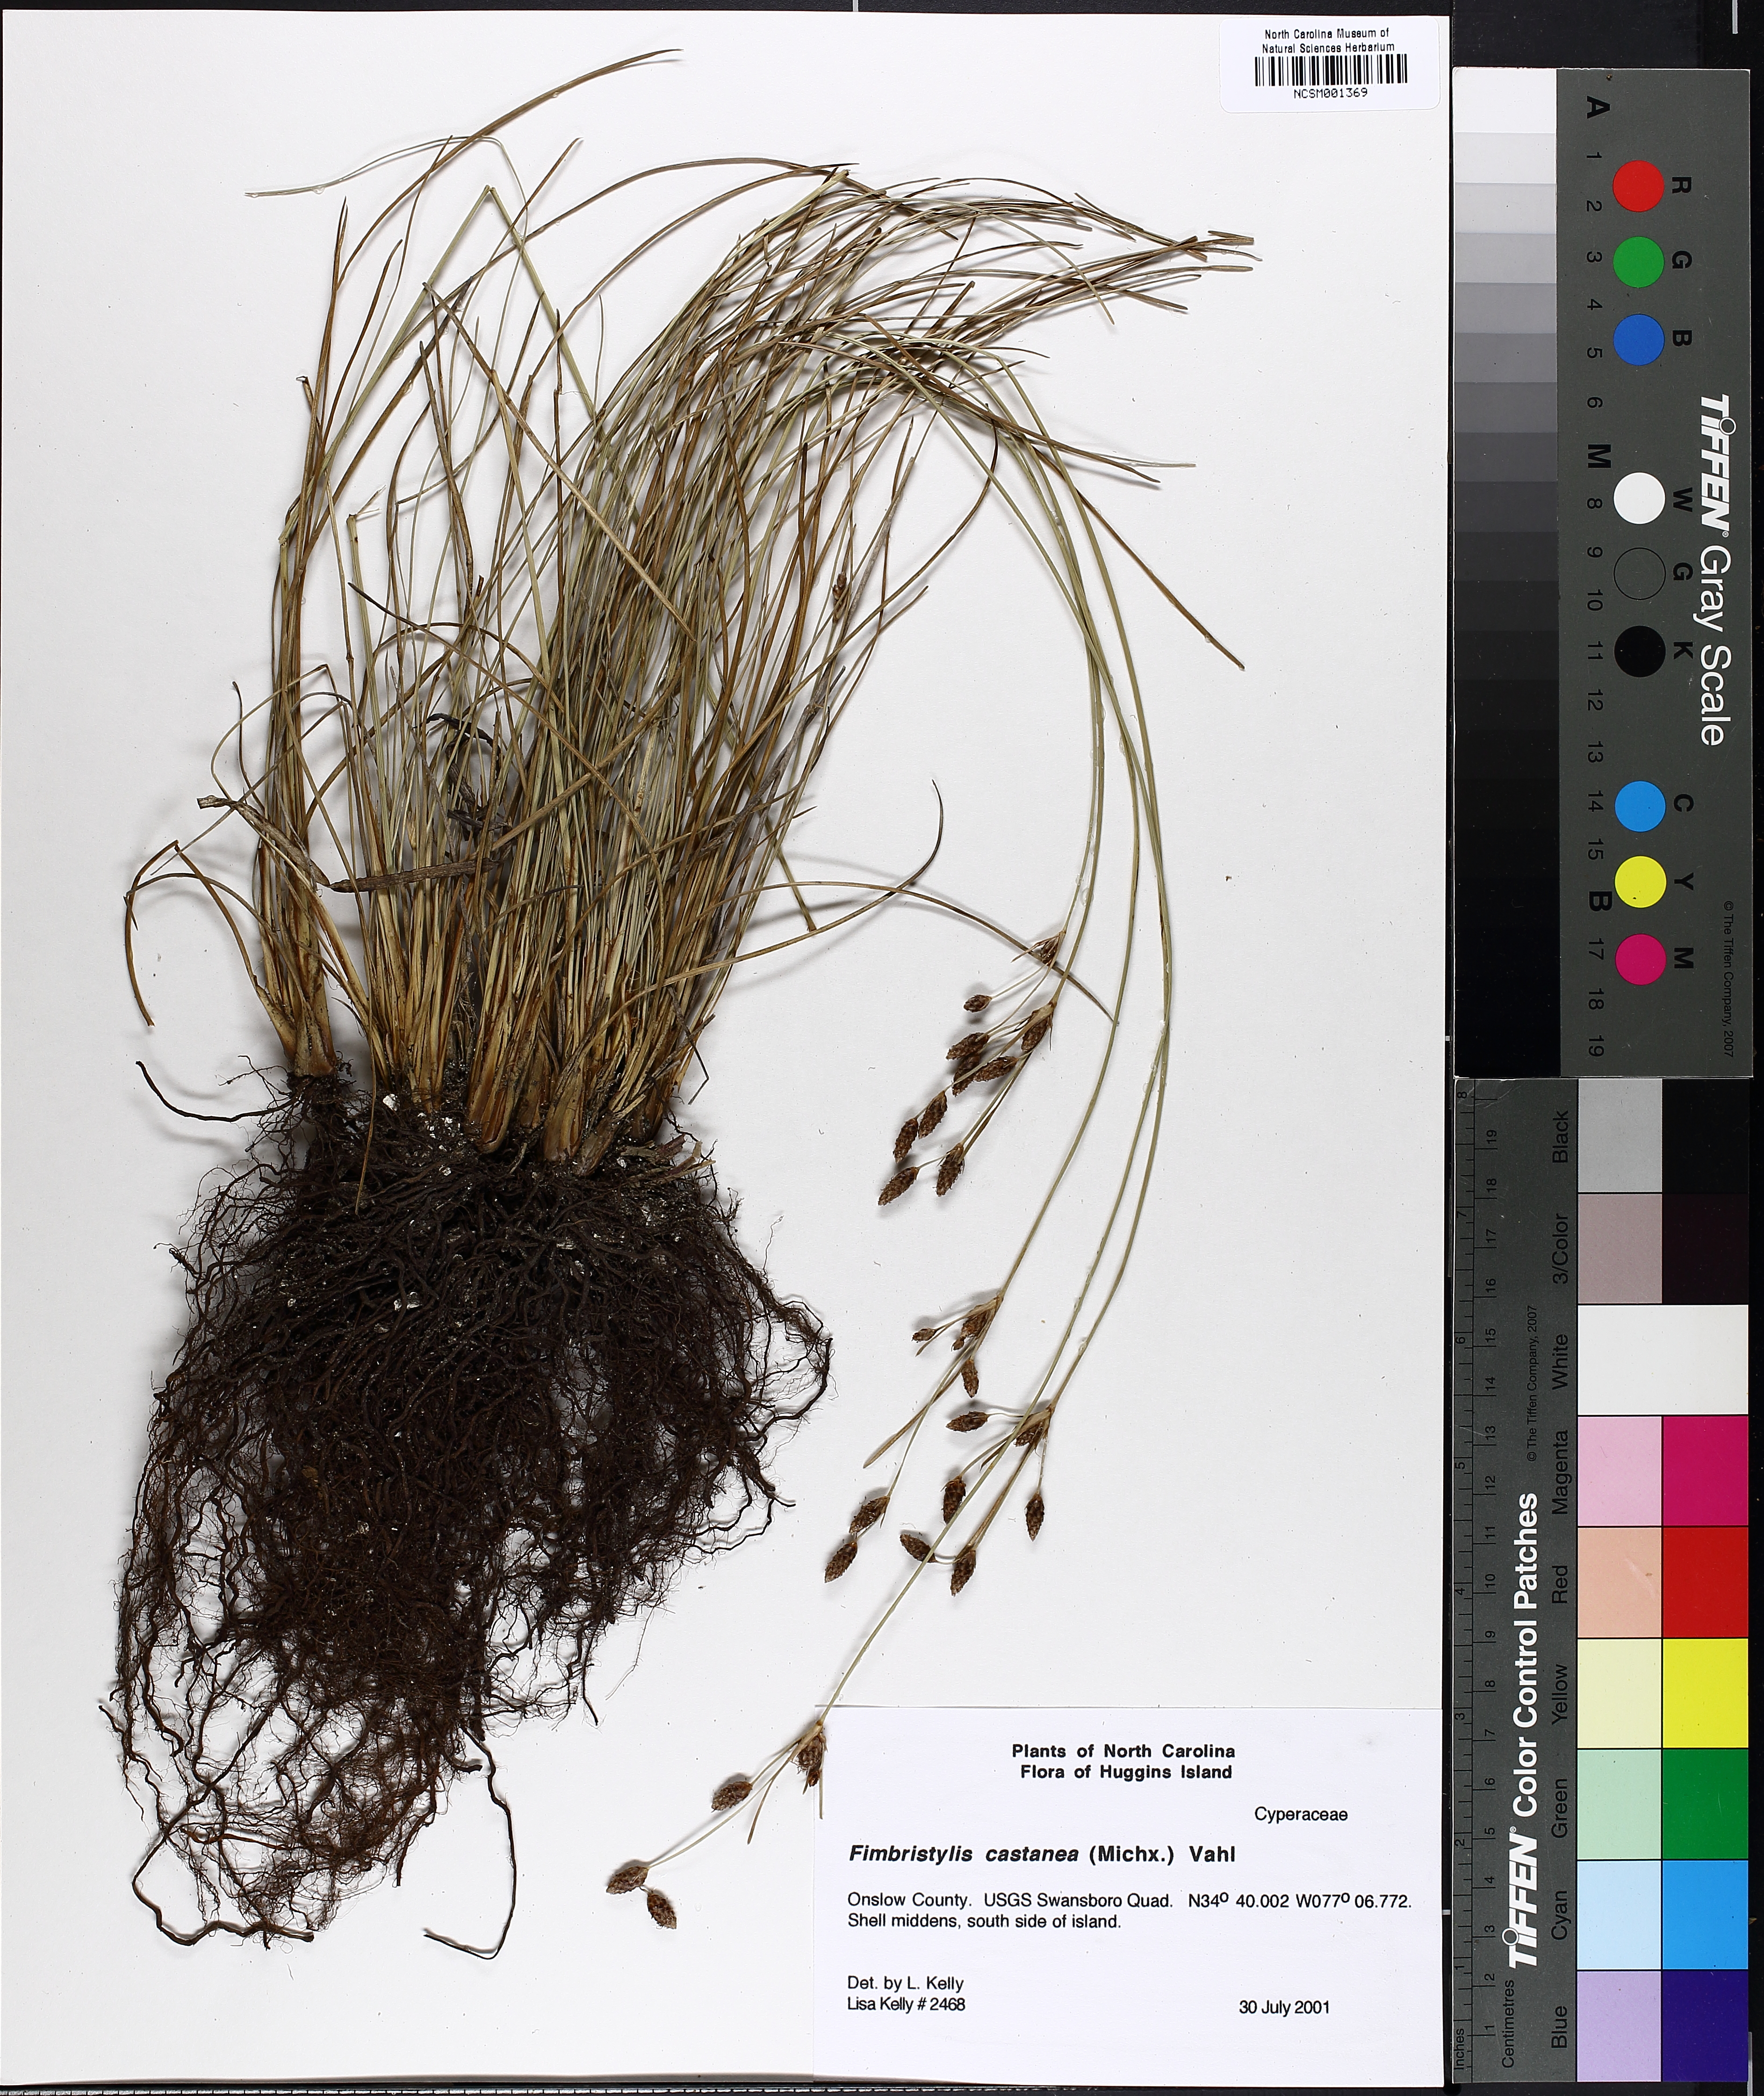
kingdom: Plantae
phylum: Tracheophyta
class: Liliopsida
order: Poales
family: Cyperaceae
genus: Fimbristylis
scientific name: Fimbristylis spadicea
